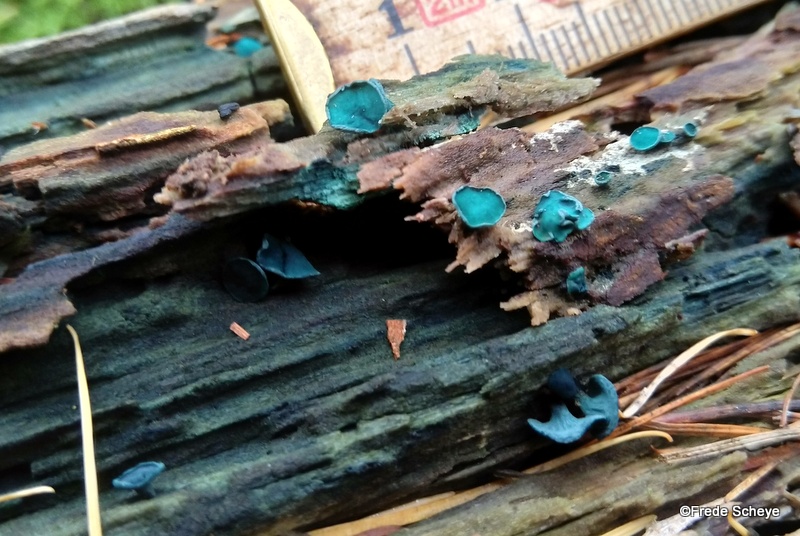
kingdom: Fungi
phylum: Ascomycota
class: Leotiomycetes
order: Helotiales
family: Chlorociboriaceae
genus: Chlorociboria
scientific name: Chlorociboria aeruginascens
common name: almindelig grønskive
